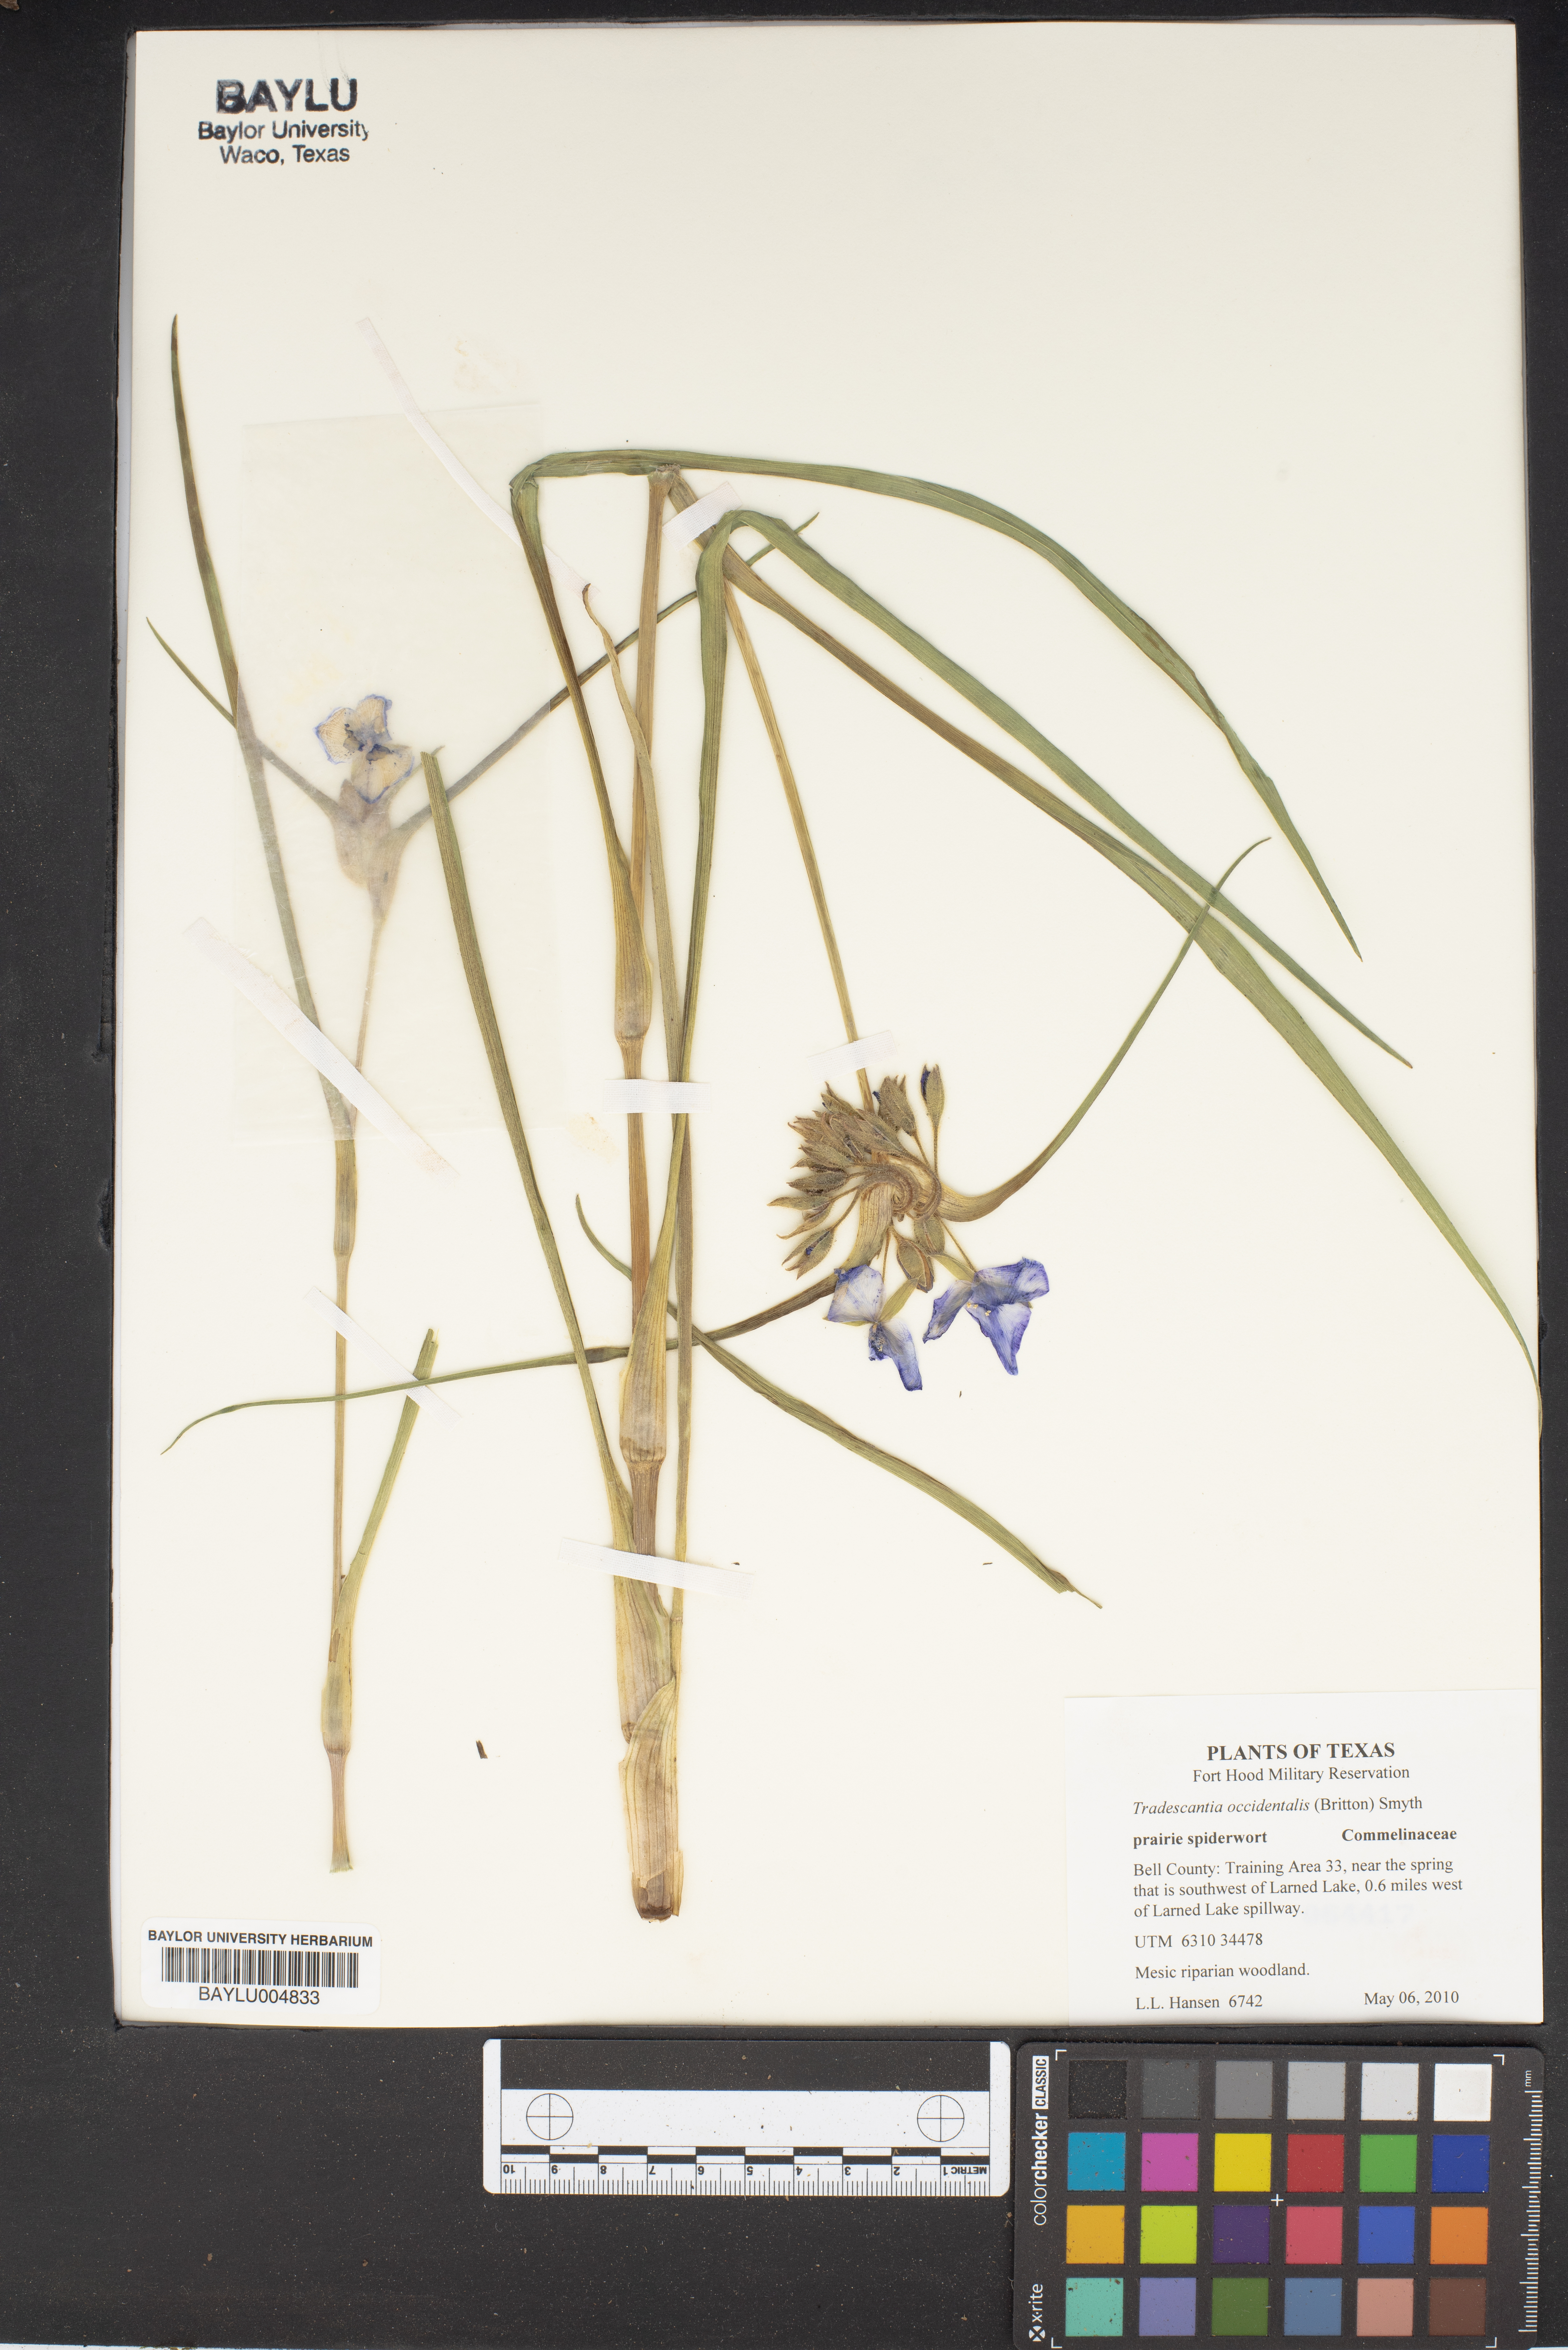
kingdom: Plantae
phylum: Tracheophyta
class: Liliopsida
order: Commelinales
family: Commelinaceae
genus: Tradescantia
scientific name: Tradescantia occidentalis
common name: Prairie spiderwort
